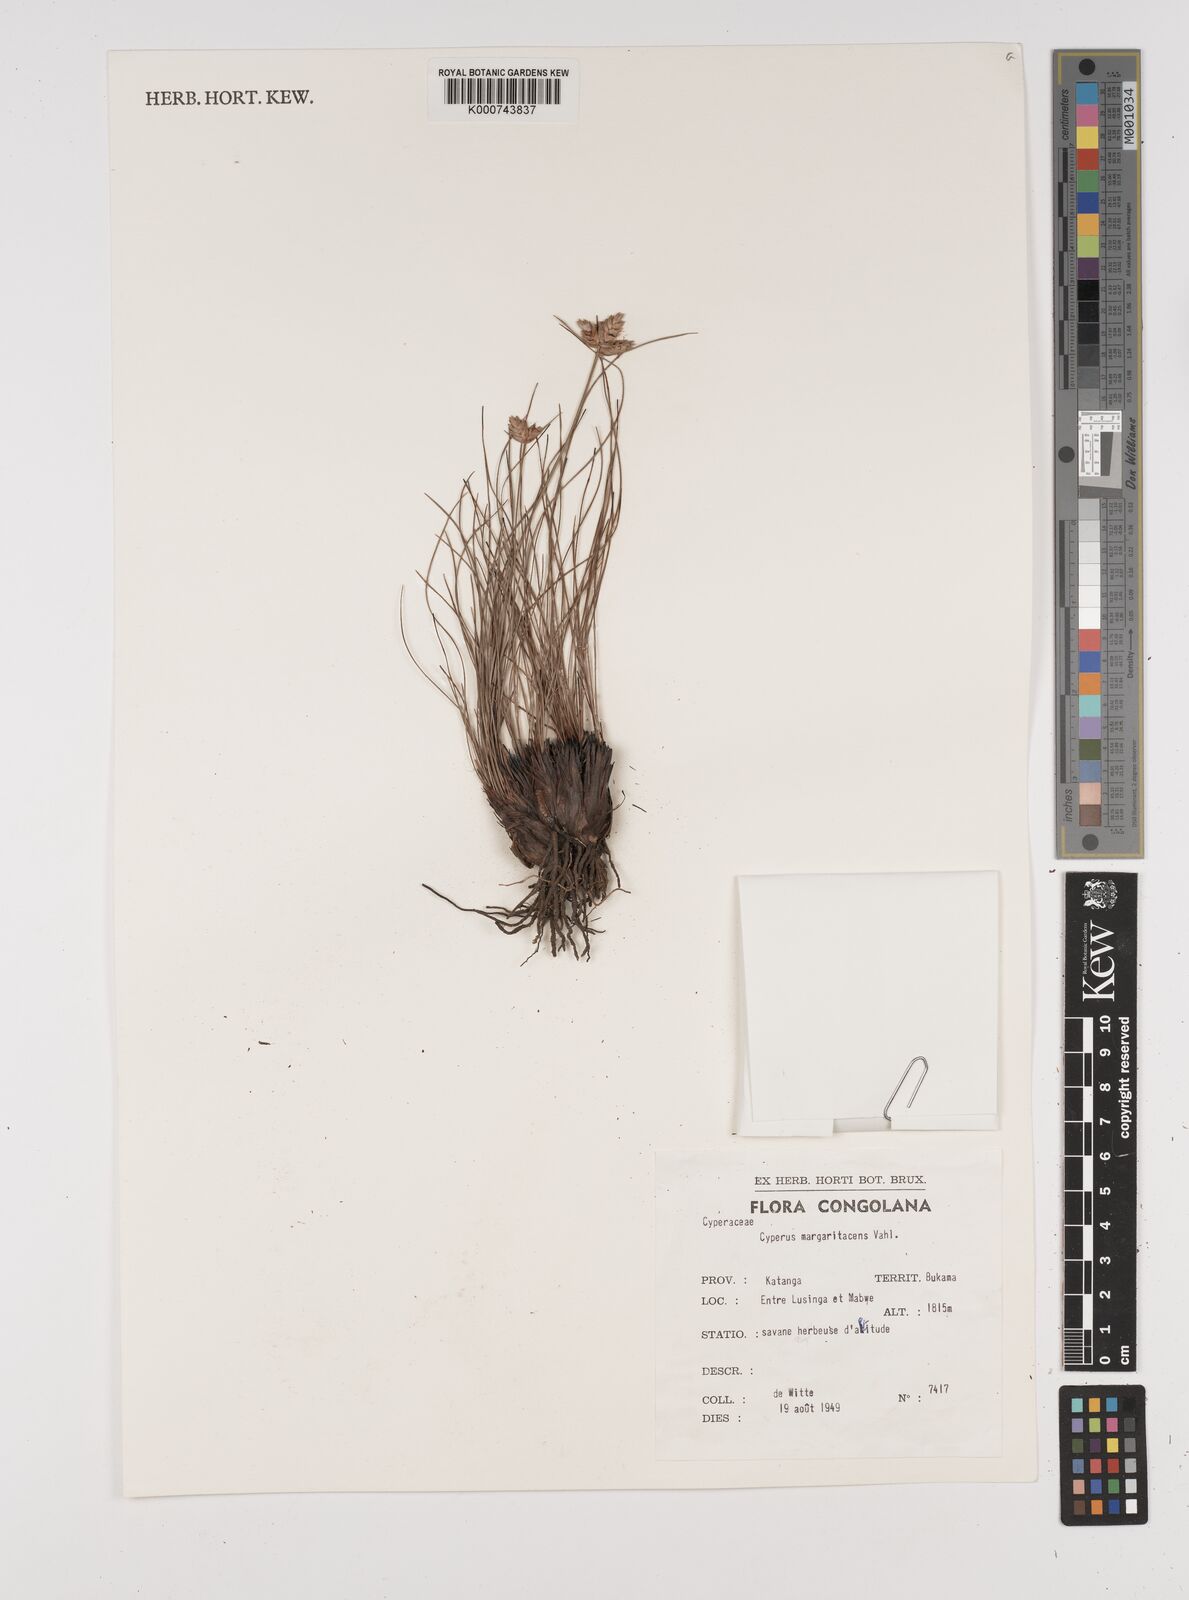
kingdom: Plantae
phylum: Tracheophyta
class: Liliopsida
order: Poales
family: Cyperaceae
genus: Cyperus
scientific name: Cyperus margaritaceus
